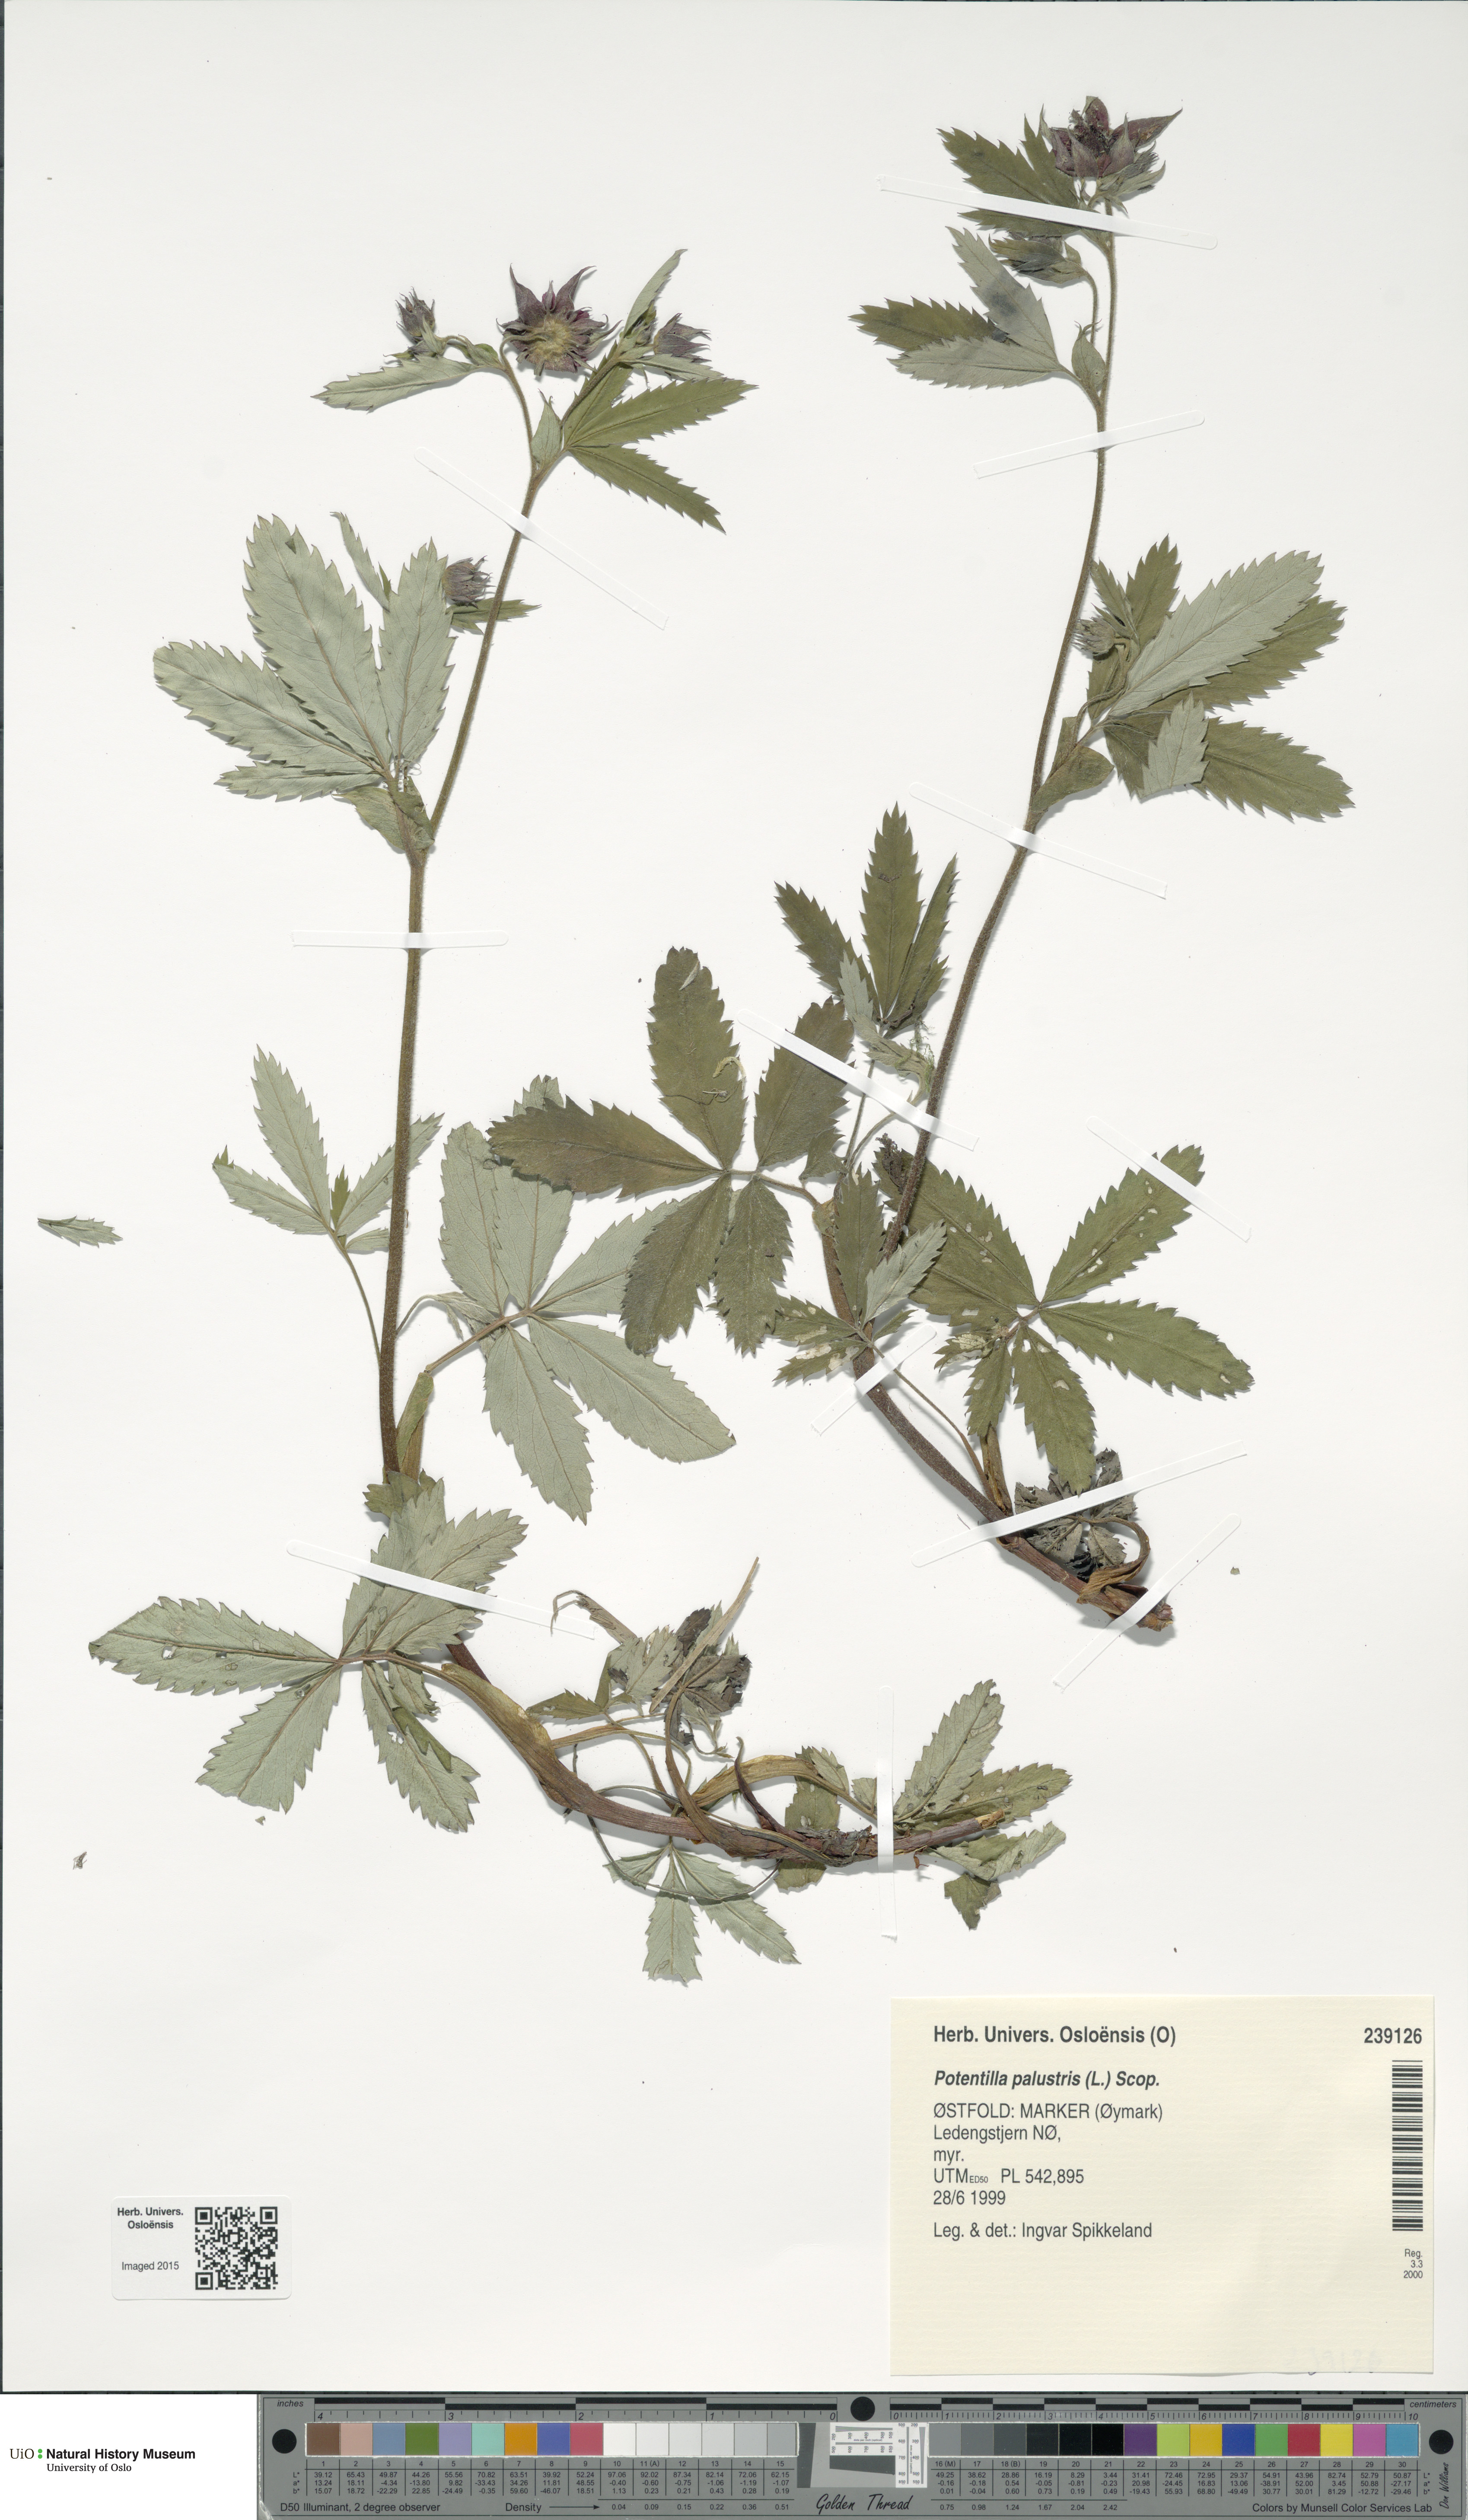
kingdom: Plantae
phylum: Tracheophyta
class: Magnoliopsida
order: Rosales
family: Rosaceae
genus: Comarum
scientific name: Comarum palustre
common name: Marsh cinquefoil
